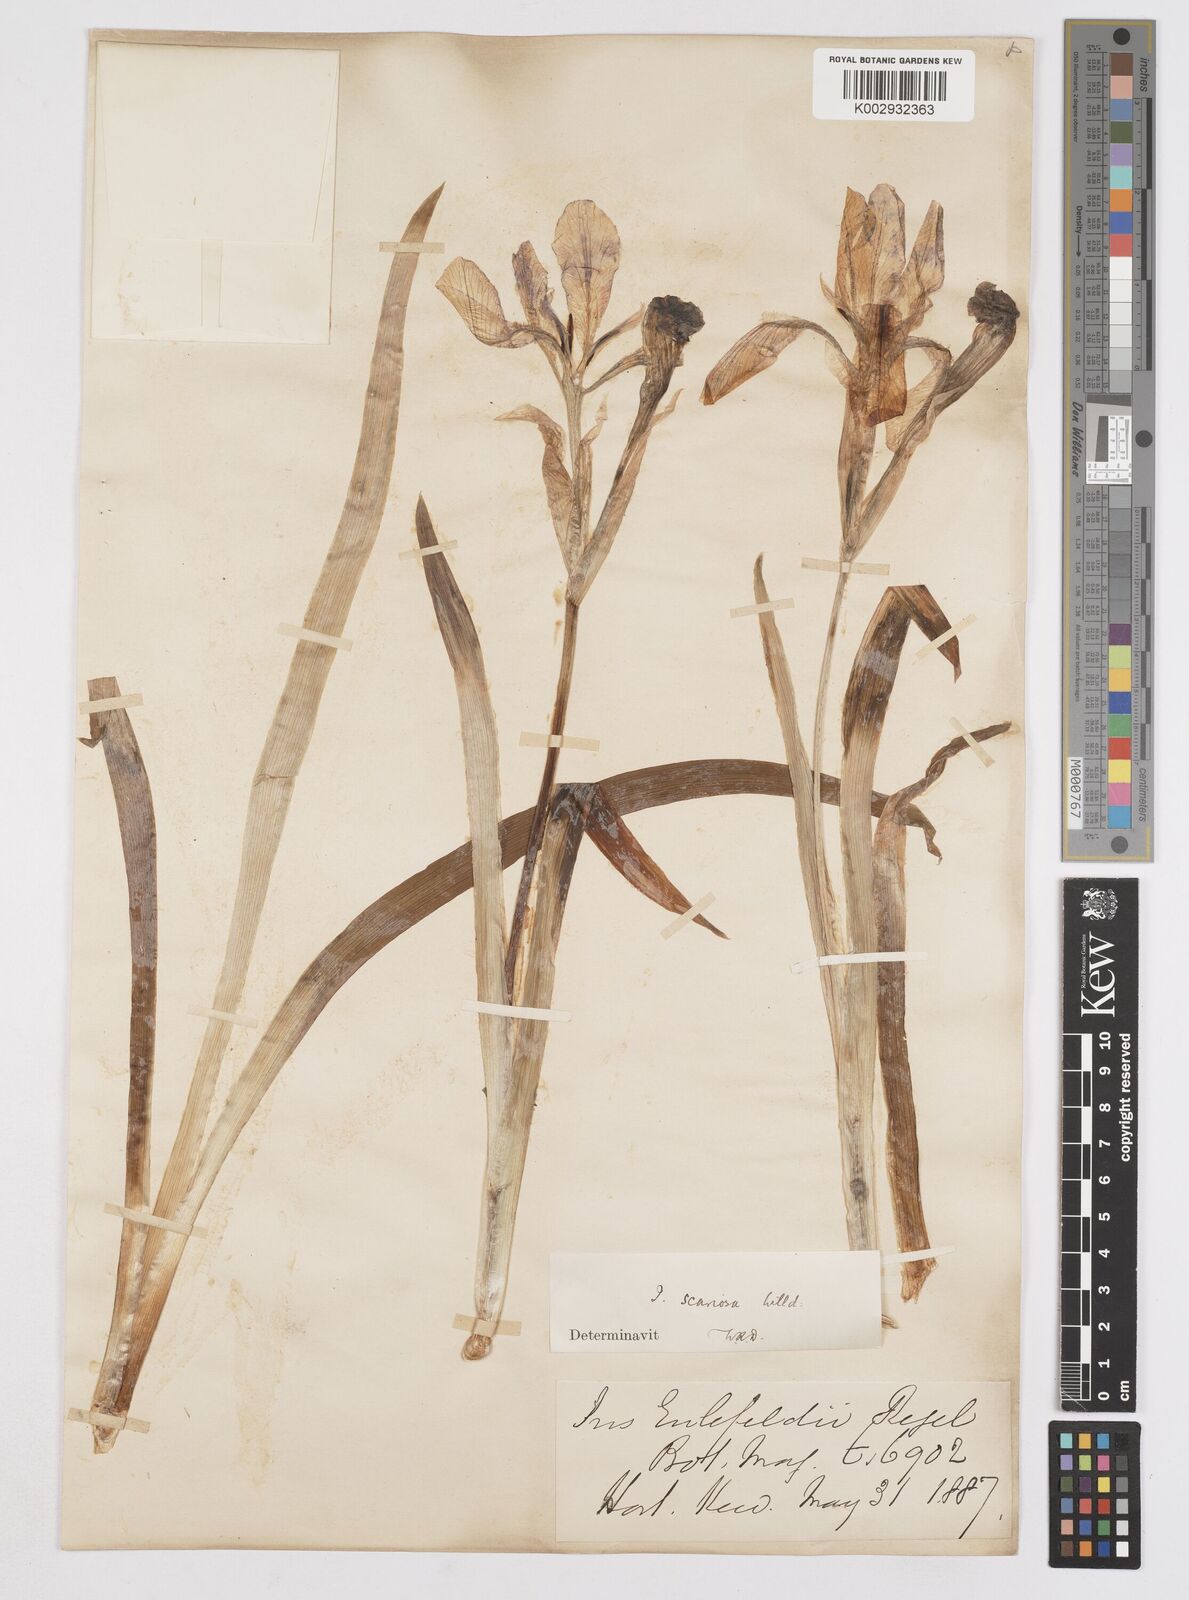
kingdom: Plantae
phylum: Tracheophyta
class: Liliopsida
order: Asparagales
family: Iridaceae
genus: Iris
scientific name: Iris scariosa
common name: Membrane-bract iris
